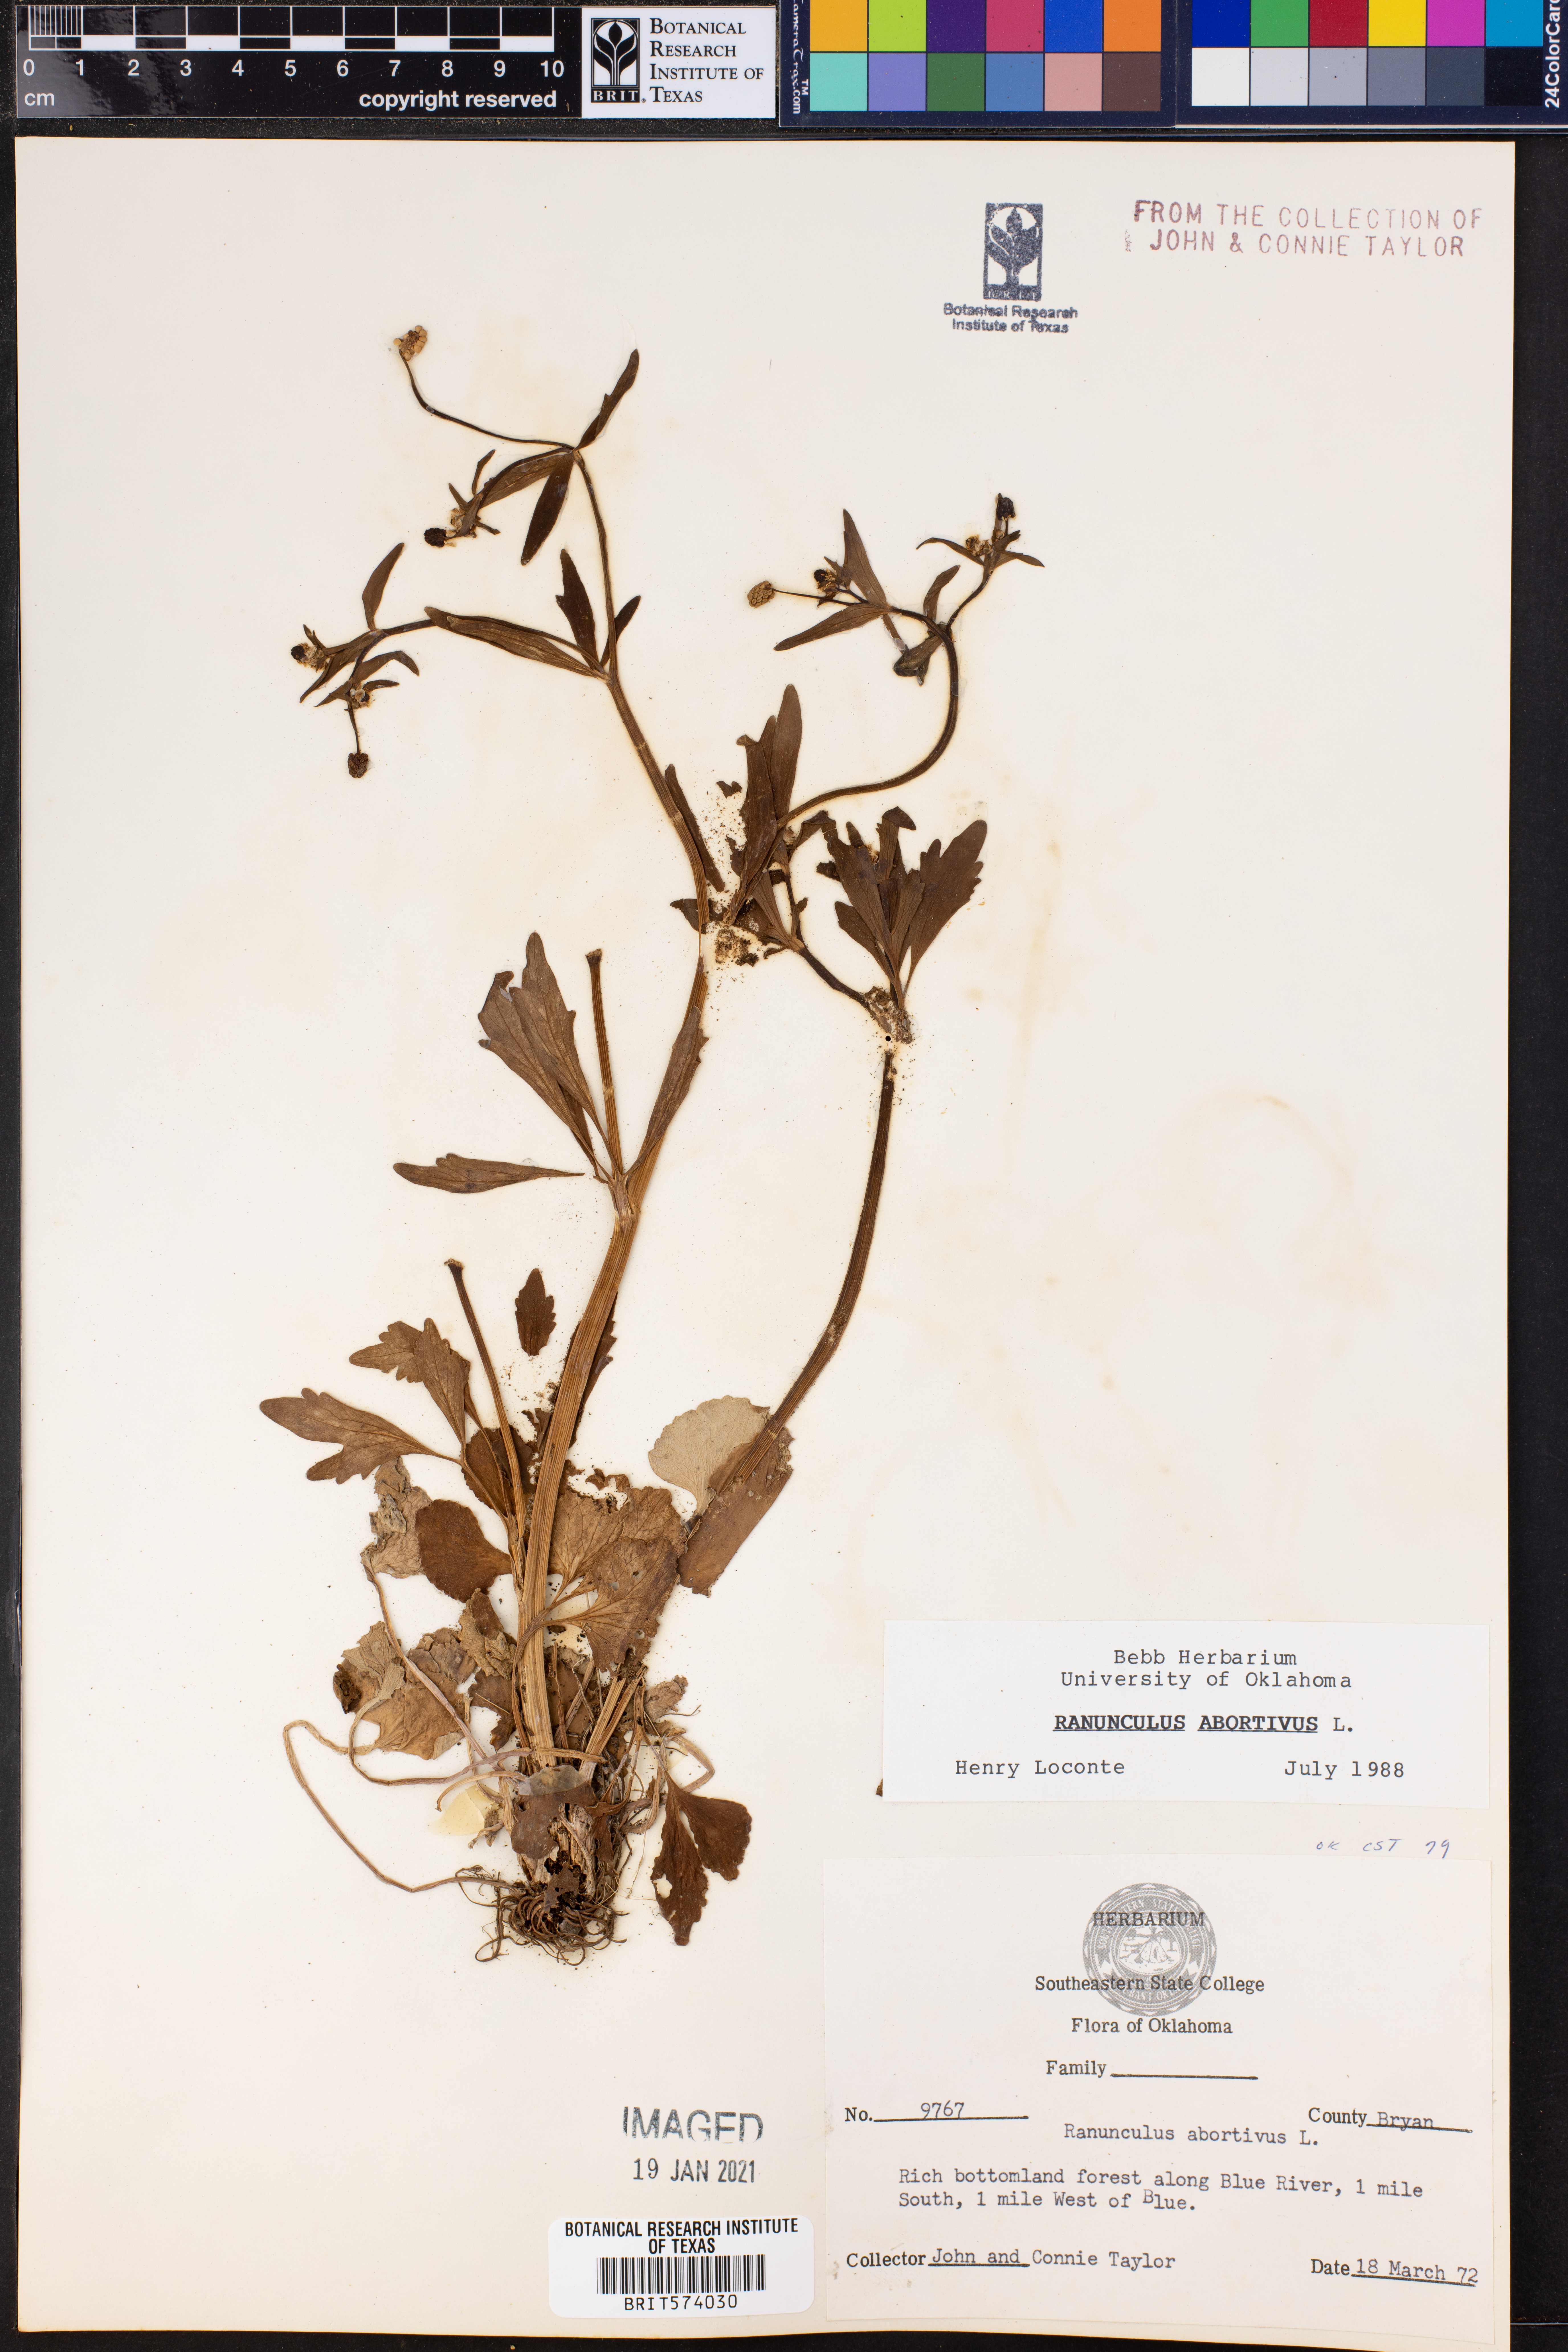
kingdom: Plantae
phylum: Tracheophyta
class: Magnoliopsida
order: Ranunculales
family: Ranunculaceae
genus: Ranunculus
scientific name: Ranunculus abortivus
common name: Early wood buttercup
